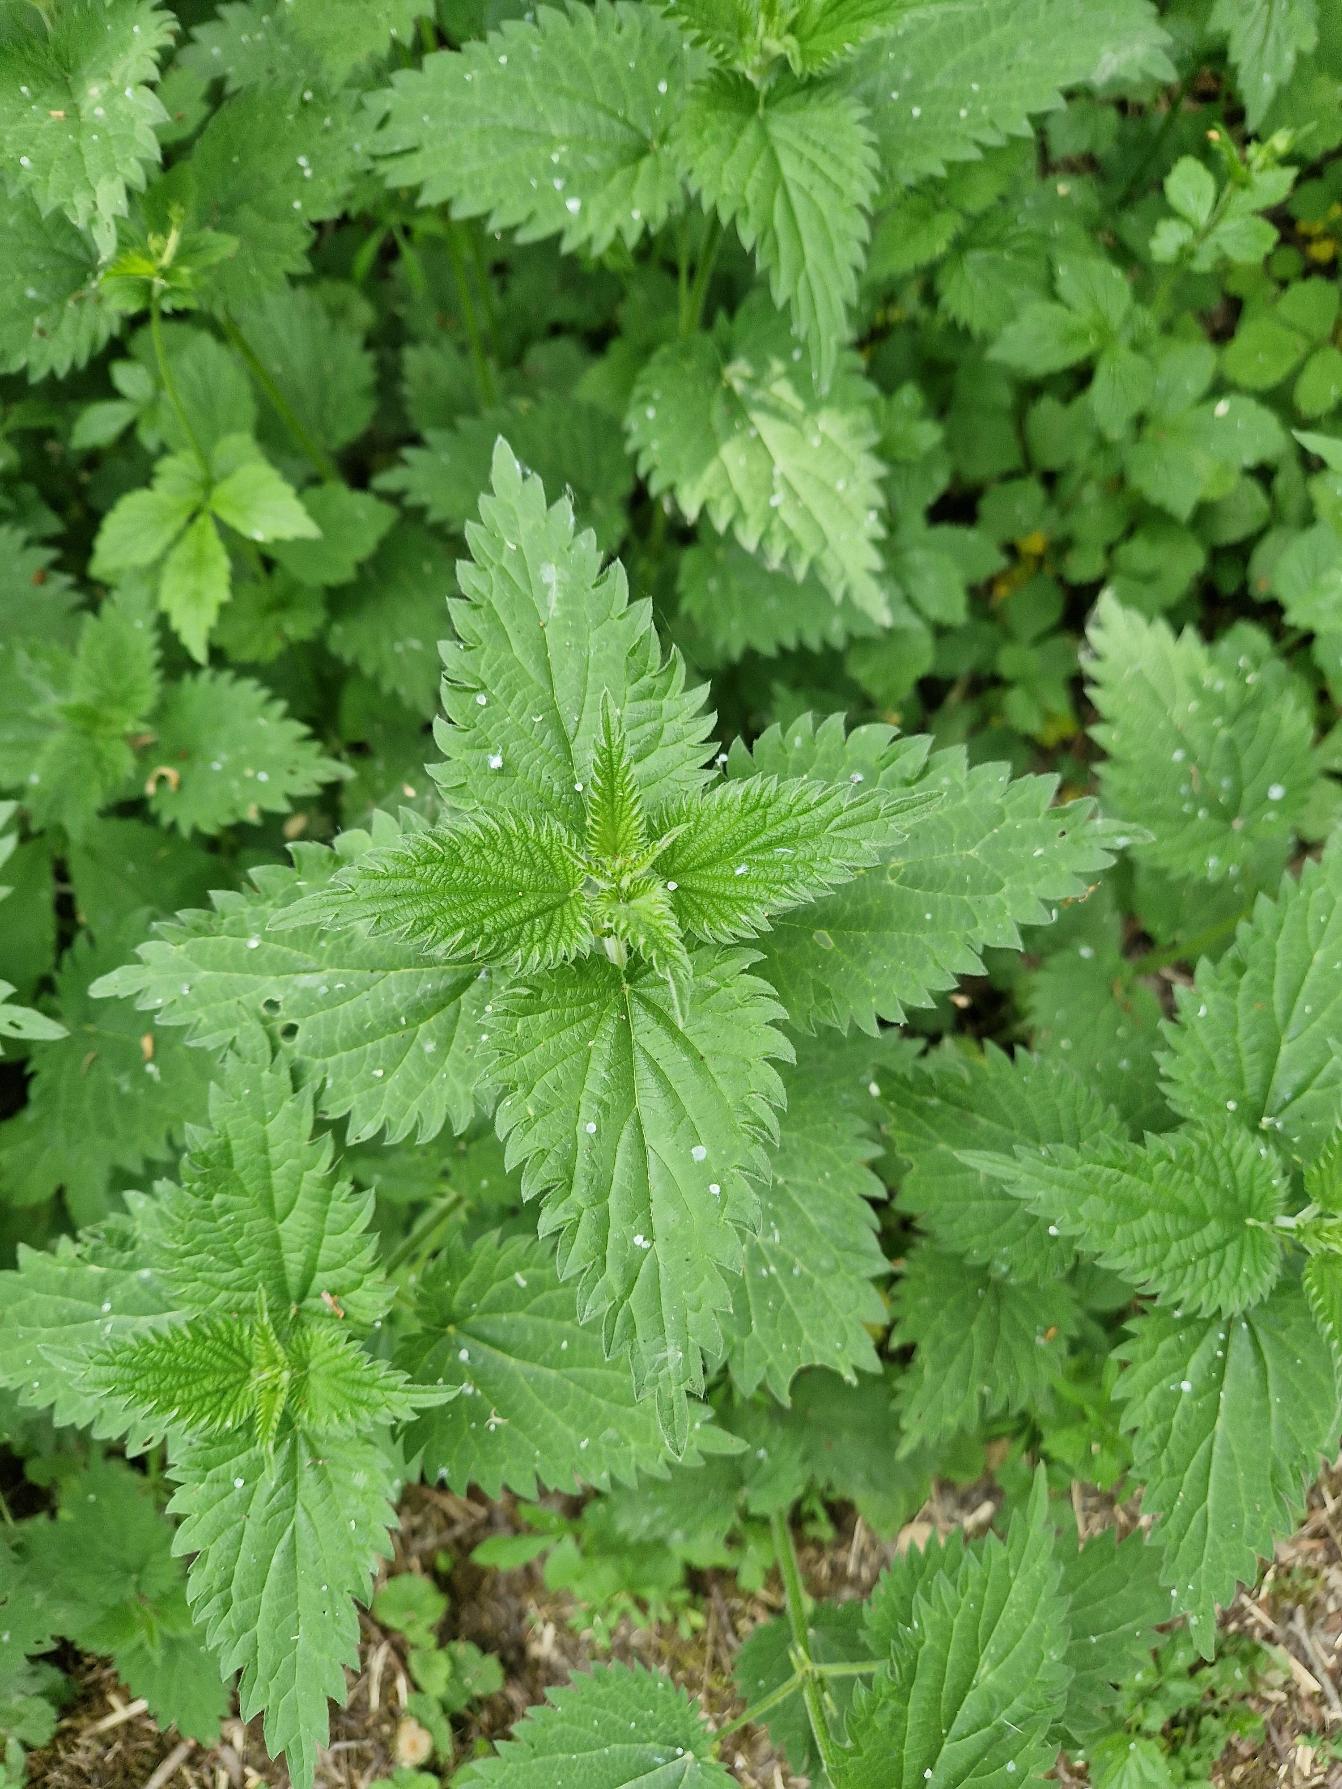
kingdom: Plantae
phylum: Tracheophyta
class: Magnoliopsida
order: Rosales
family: Urticaceae
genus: Urtica
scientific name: Urtica dioica
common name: Stor nælde
